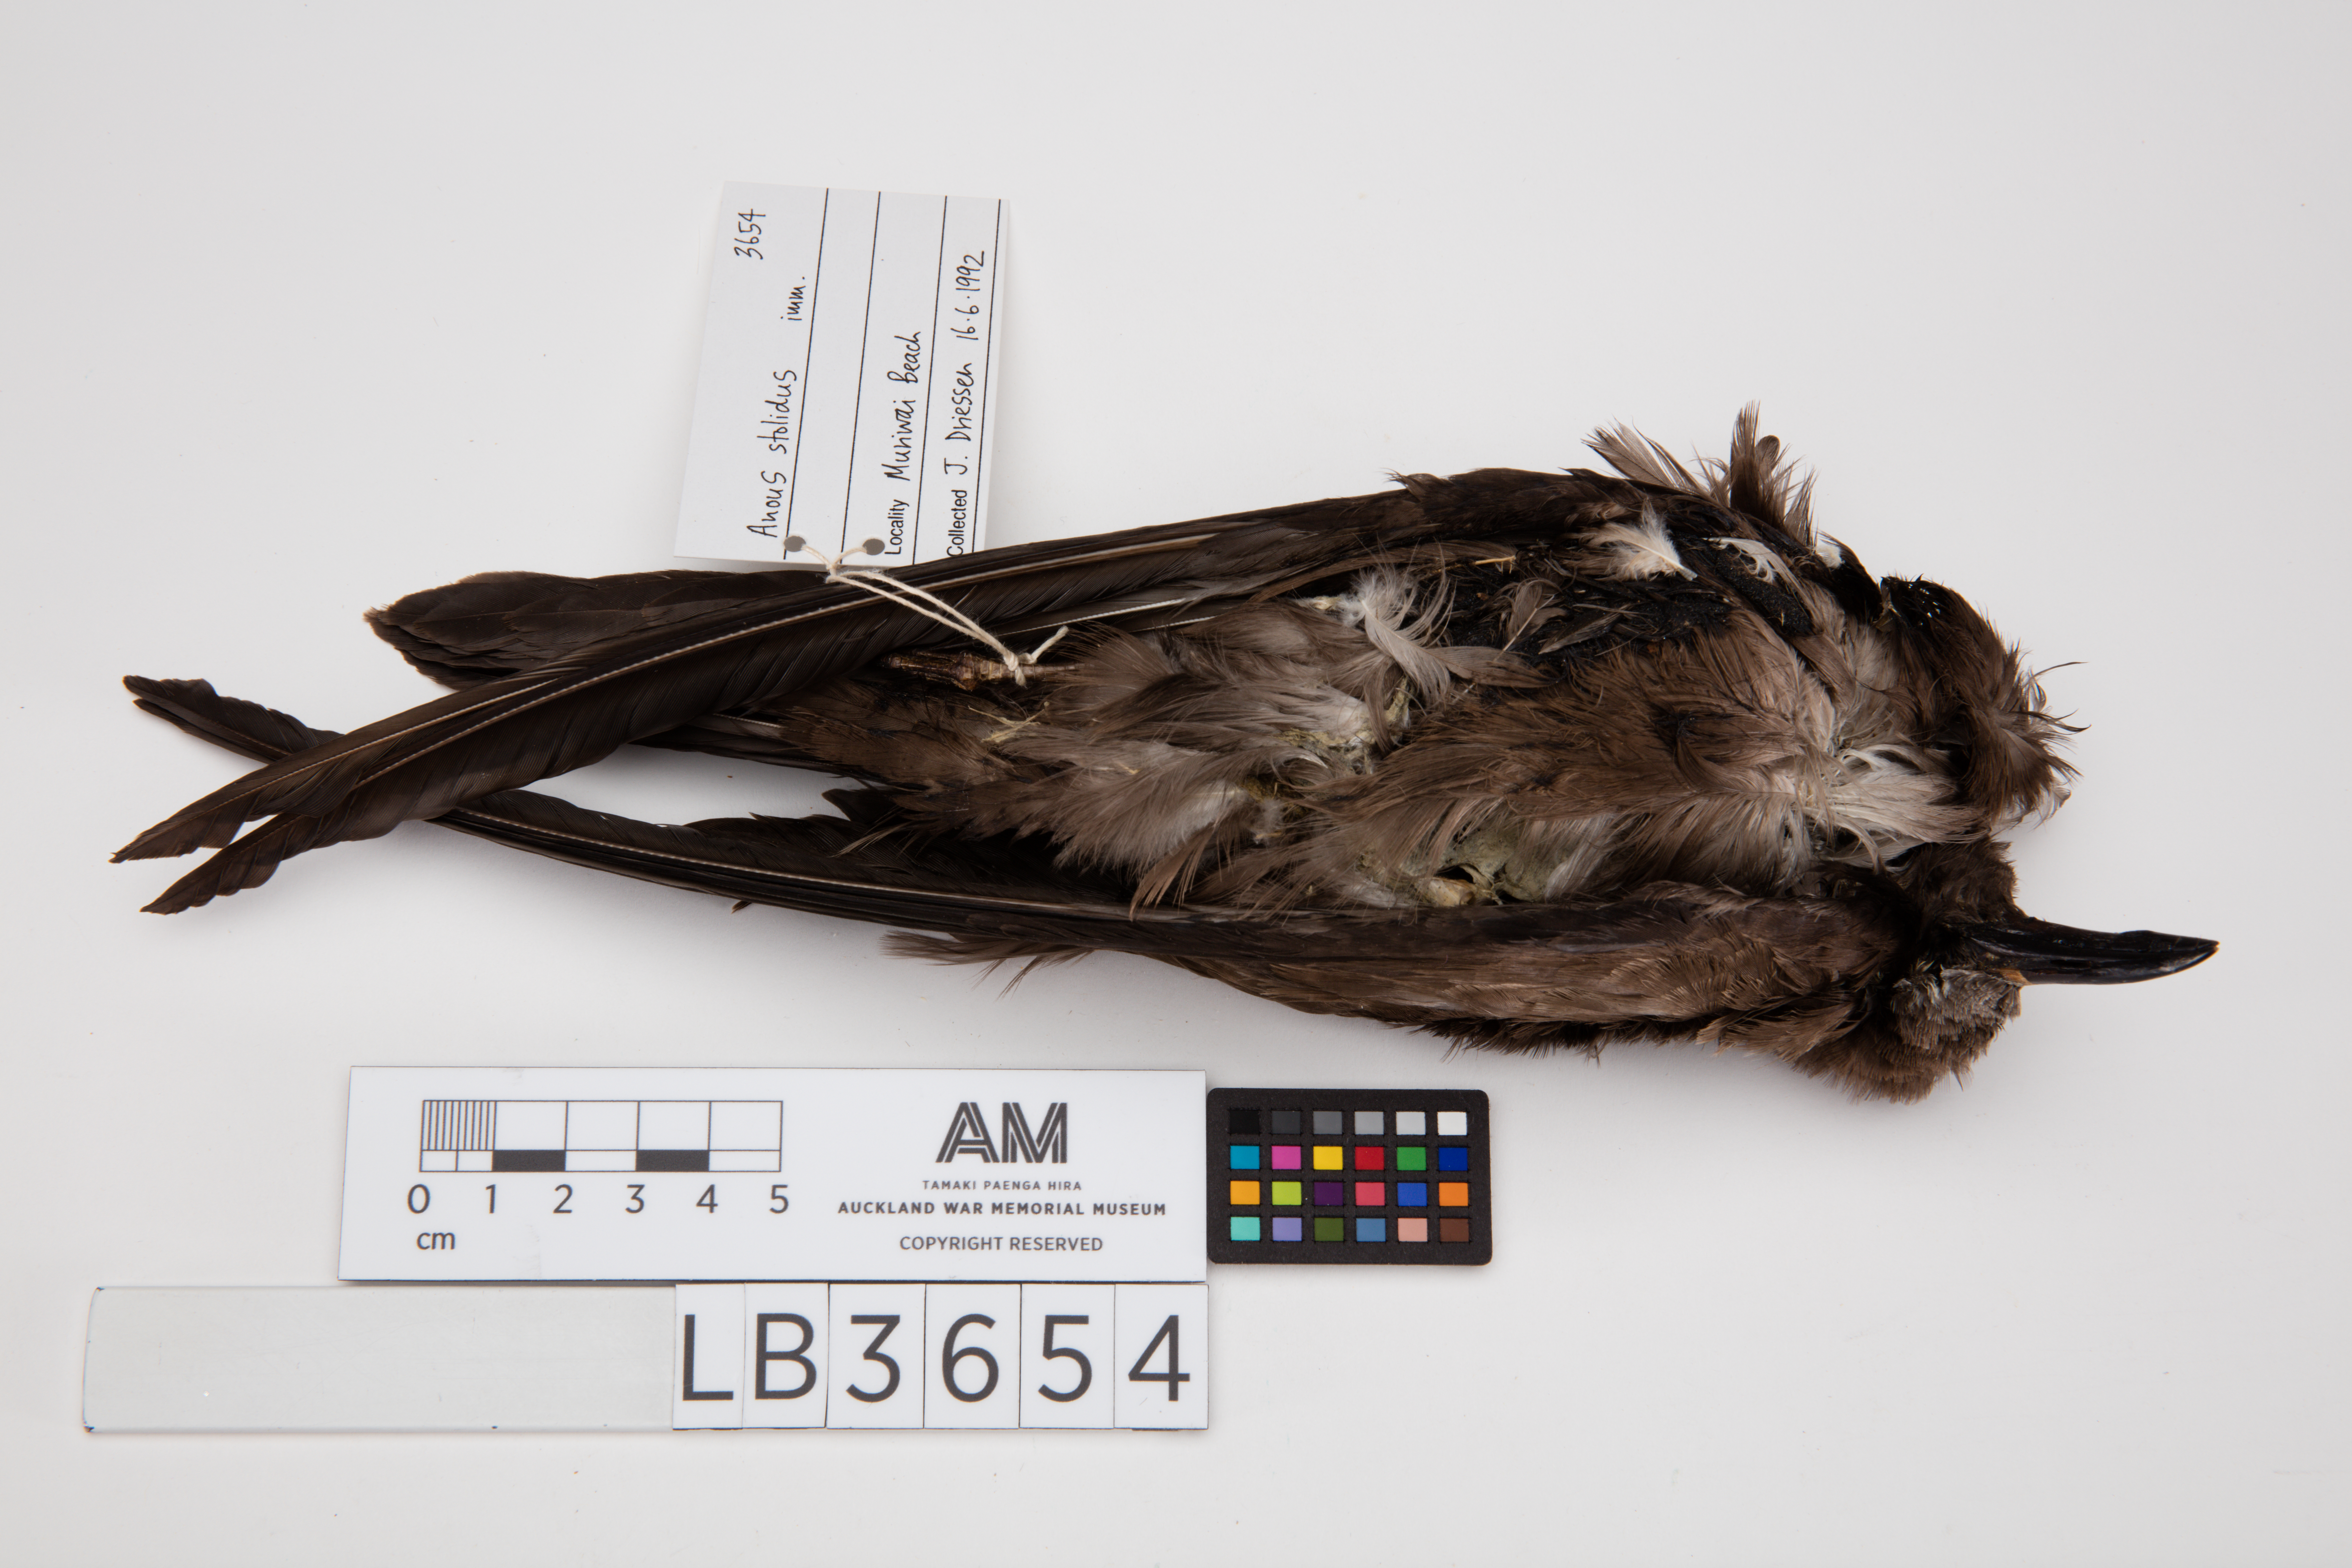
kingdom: Animalia
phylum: Chordata
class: Aves
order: Charadriiformes
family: Laridae
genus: Anous
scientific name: Anous stolidus
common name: Brown noddy
